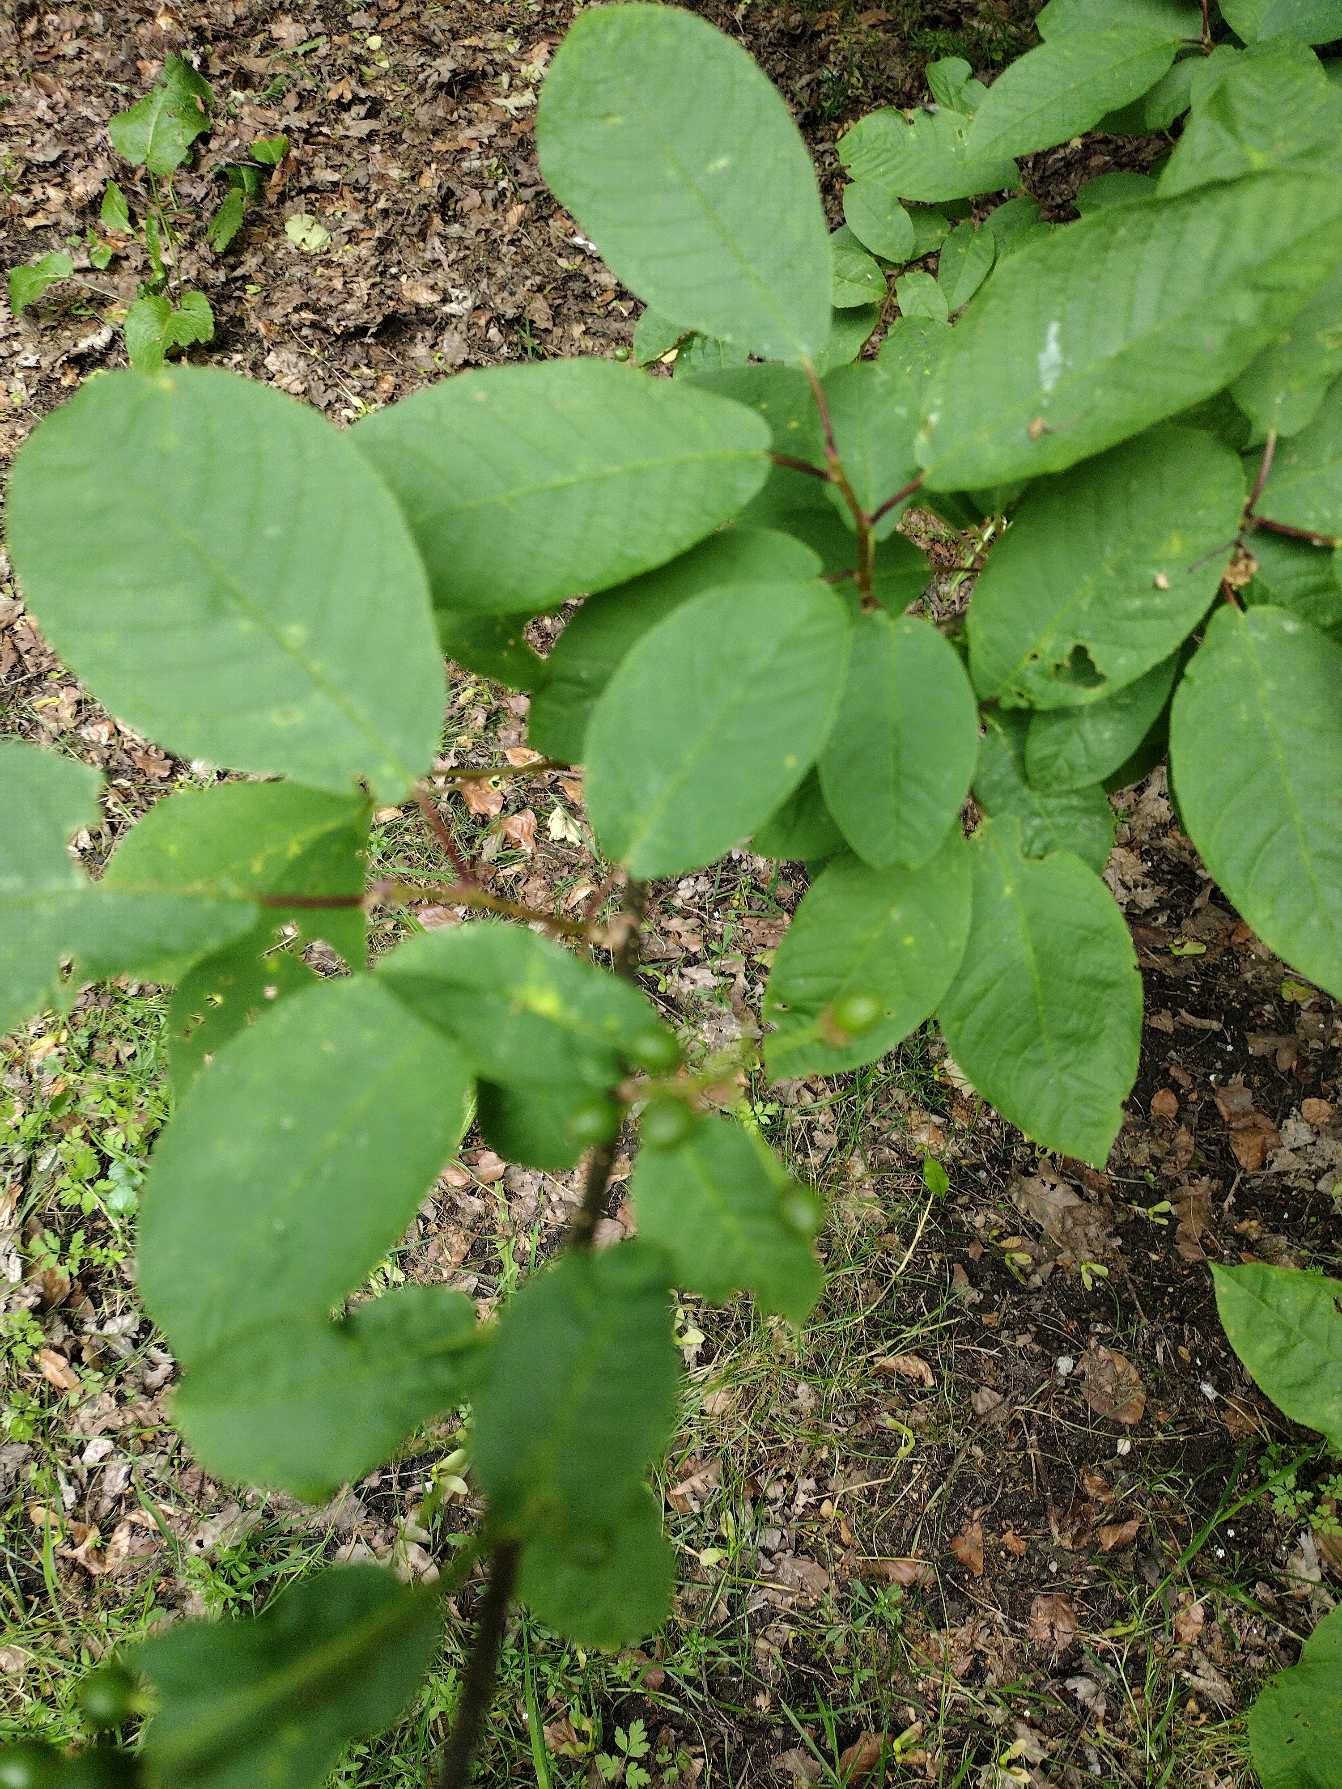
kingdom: Plantae
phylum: Tracheophyta
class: Magnoliopsida
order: Rosales
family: Rosaceae
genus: Prunus
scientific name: Prunus padus
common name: Almindelig hæg
